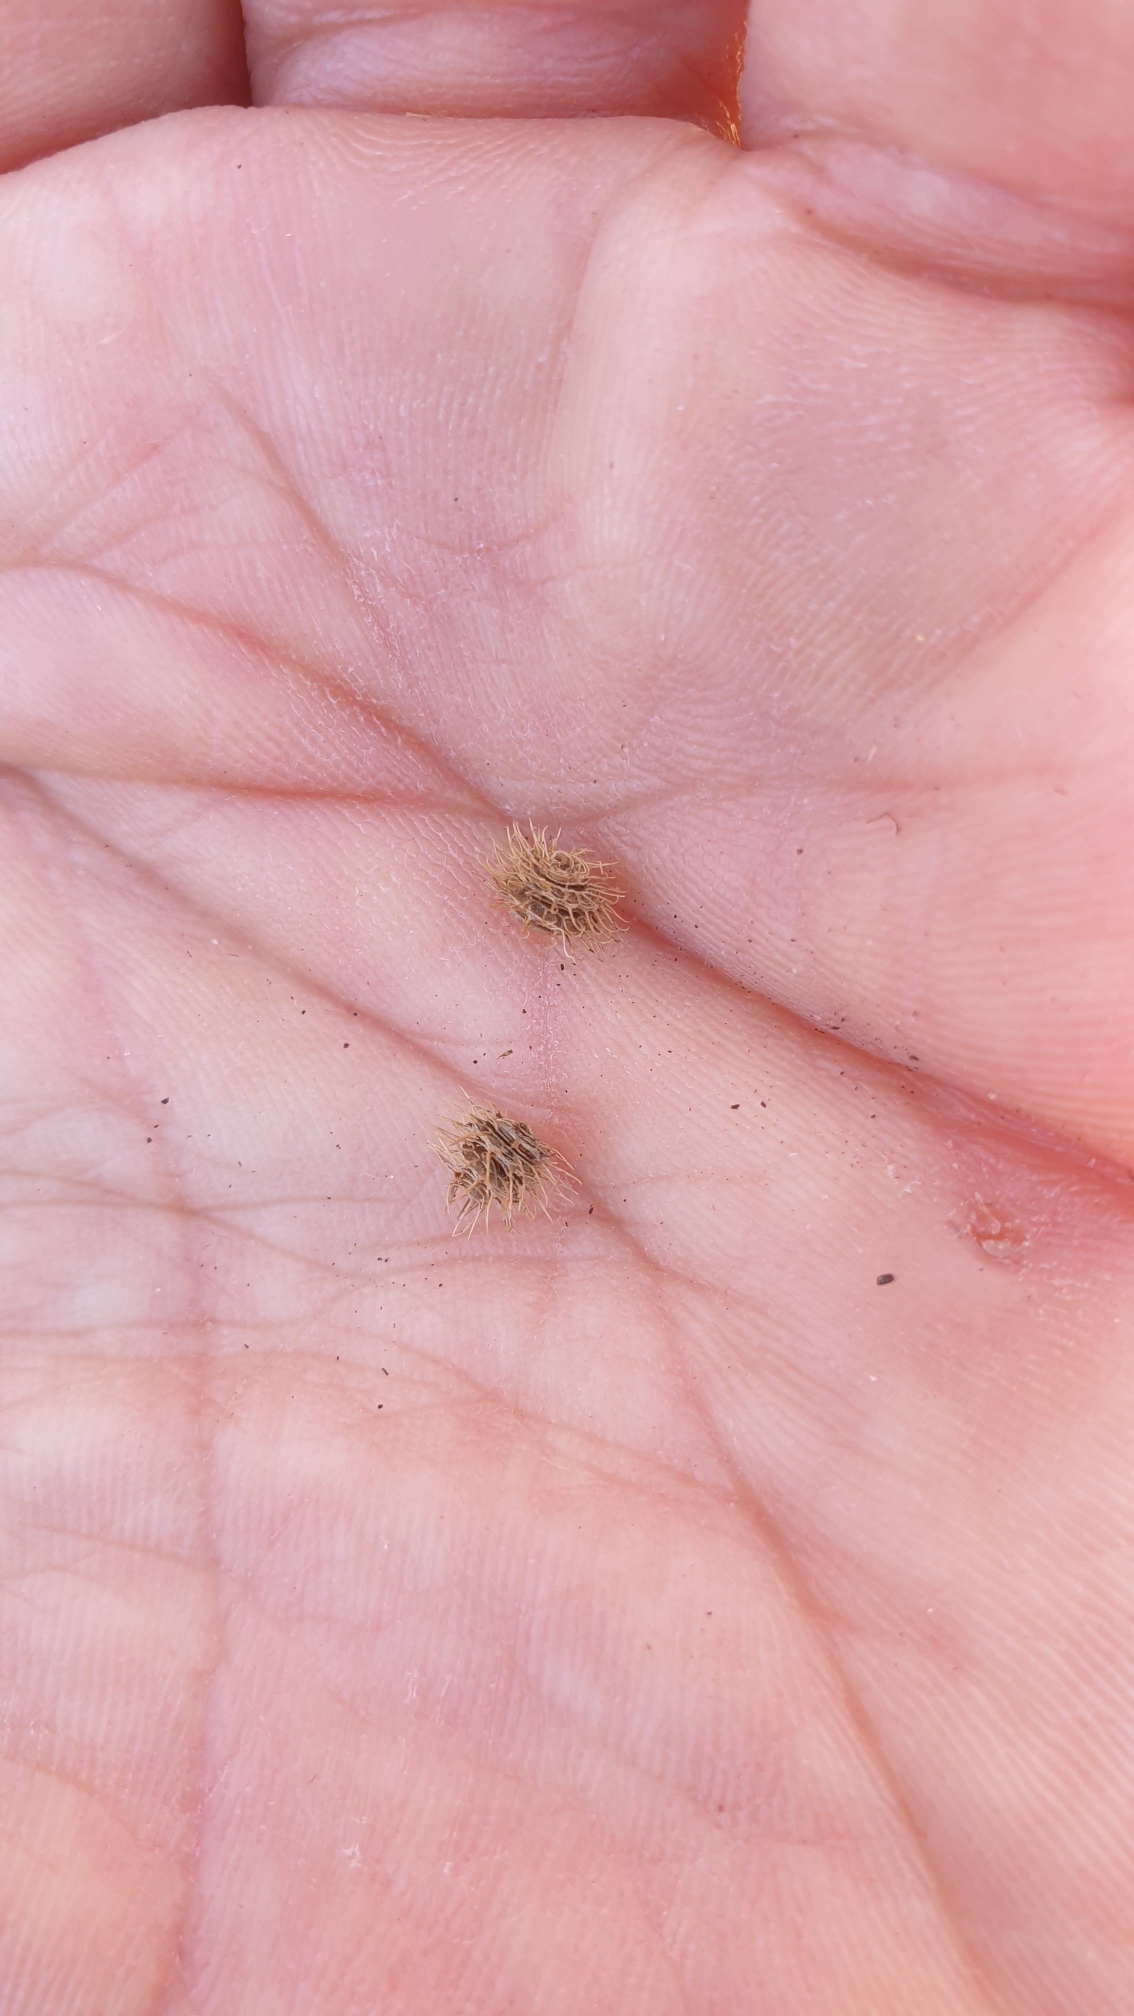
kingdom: Plantae
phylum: Tracheophyta
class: Magnoliopsida
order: Fabales
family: Fabaceae
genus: Medicago
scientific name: Medicago minima
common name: Liden sneglebælg
